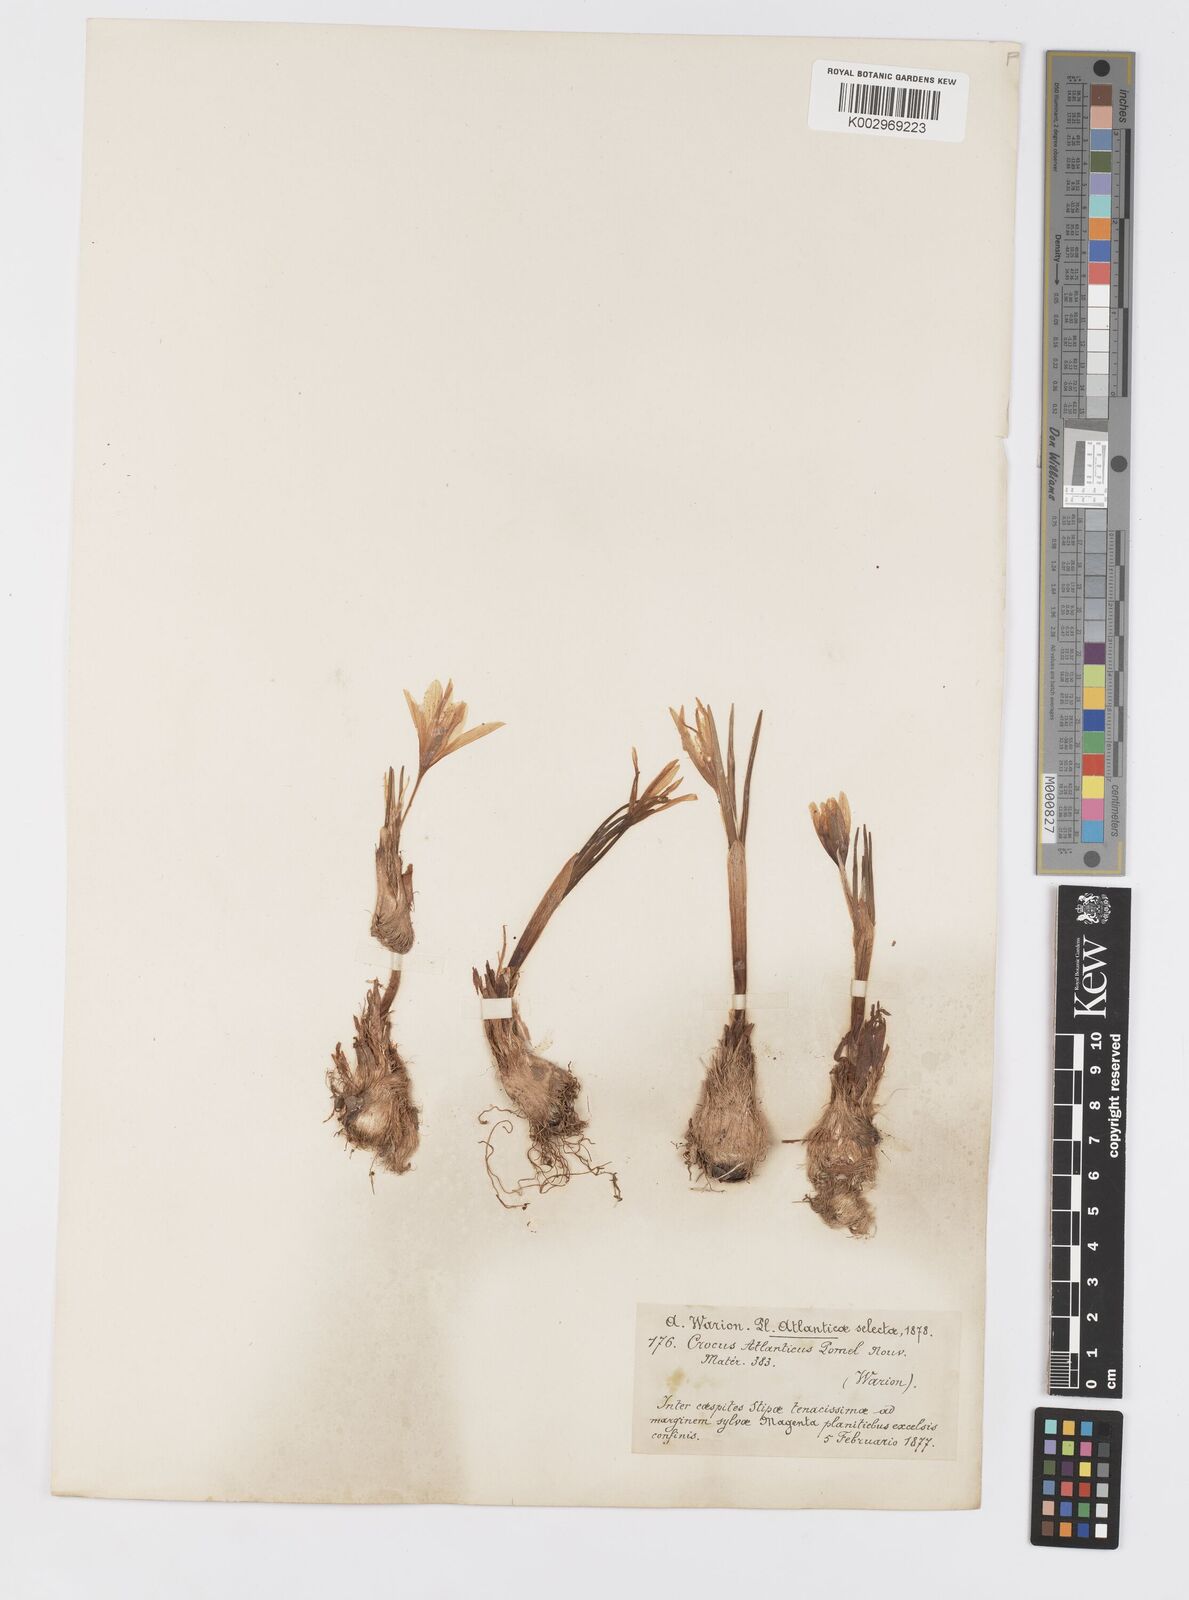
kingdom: Plantae
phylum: Tracheophyta
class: Liliopsida
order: Asparagales
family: Iridaceae
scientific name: Iridaceae
